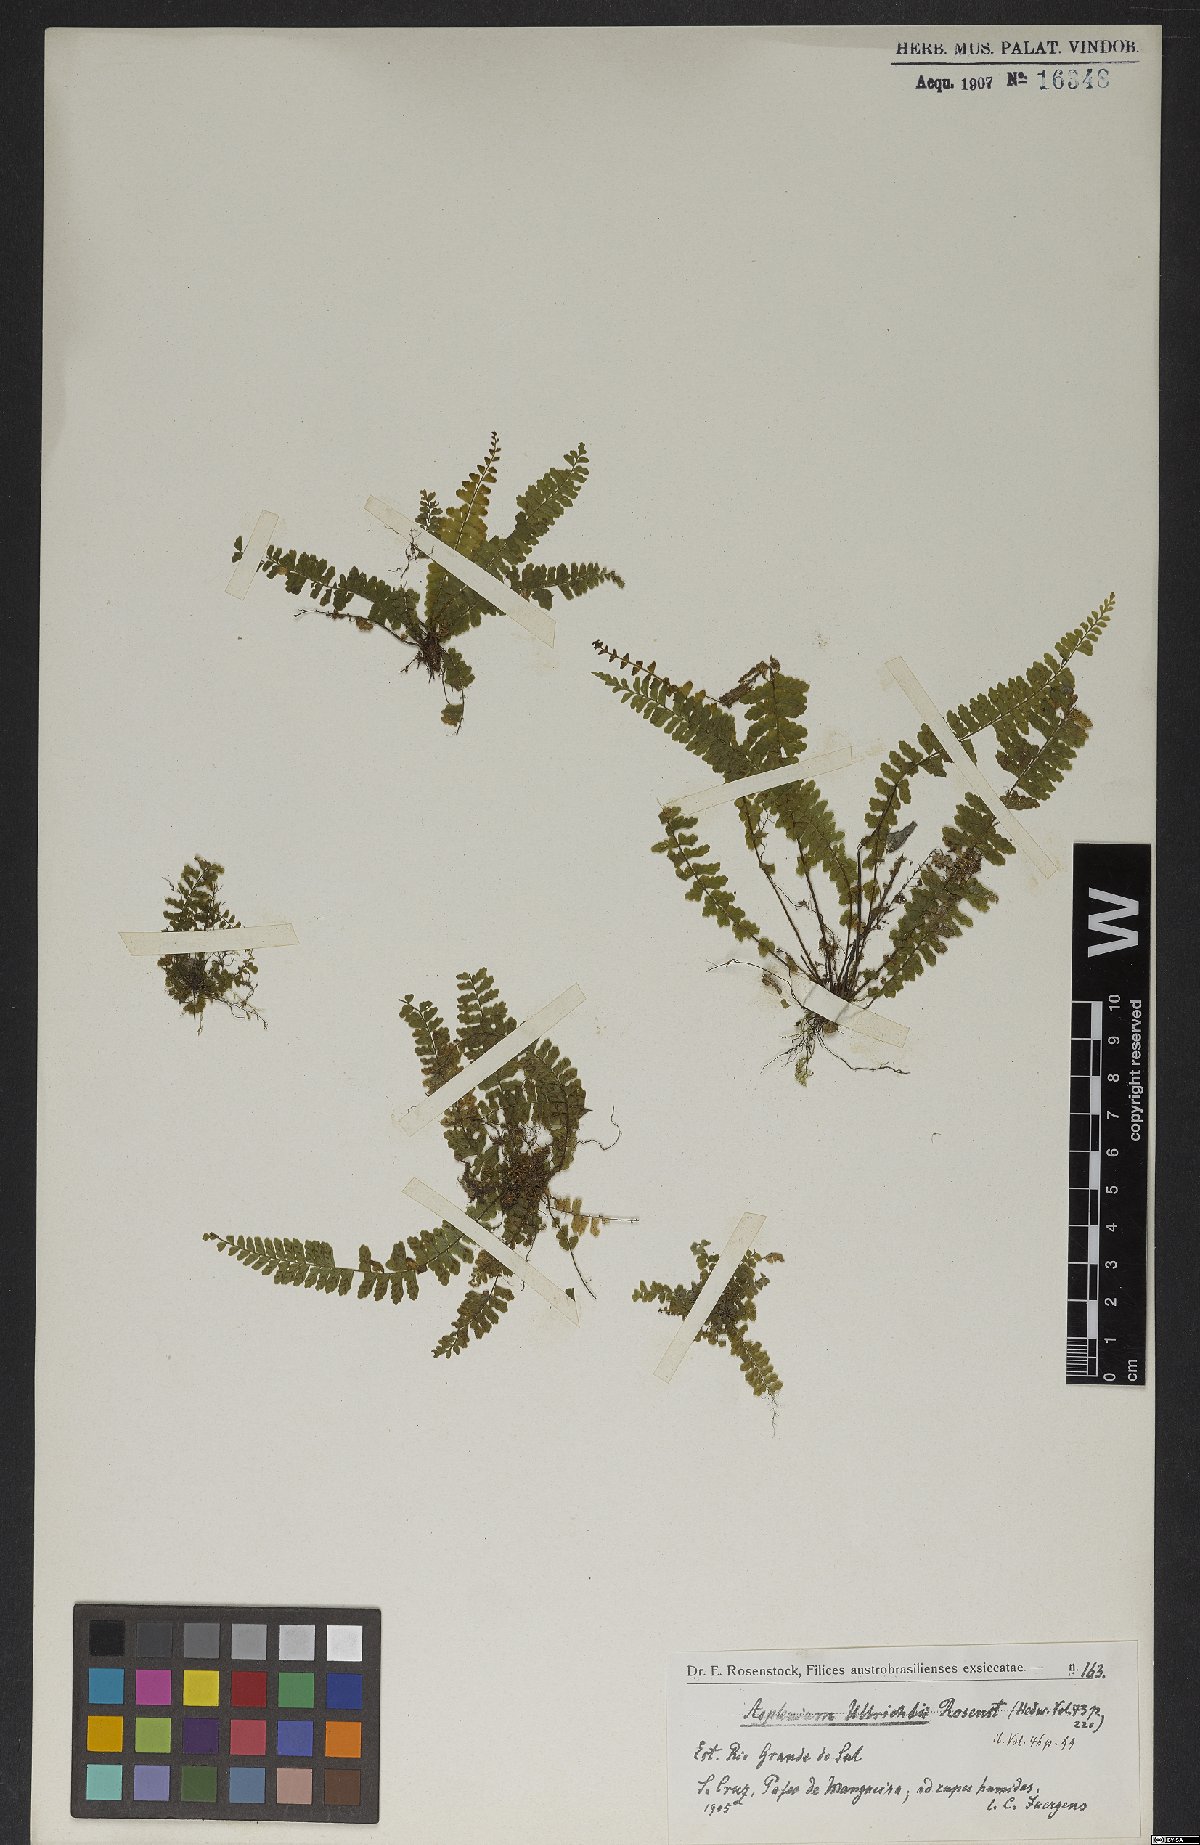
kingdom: Plantae
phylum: Tracheophyta
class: Polypodiopsida
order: Polypodiales
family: Aspleniaceae
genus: Asplenium
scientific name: Asplenium ulbrichtii
